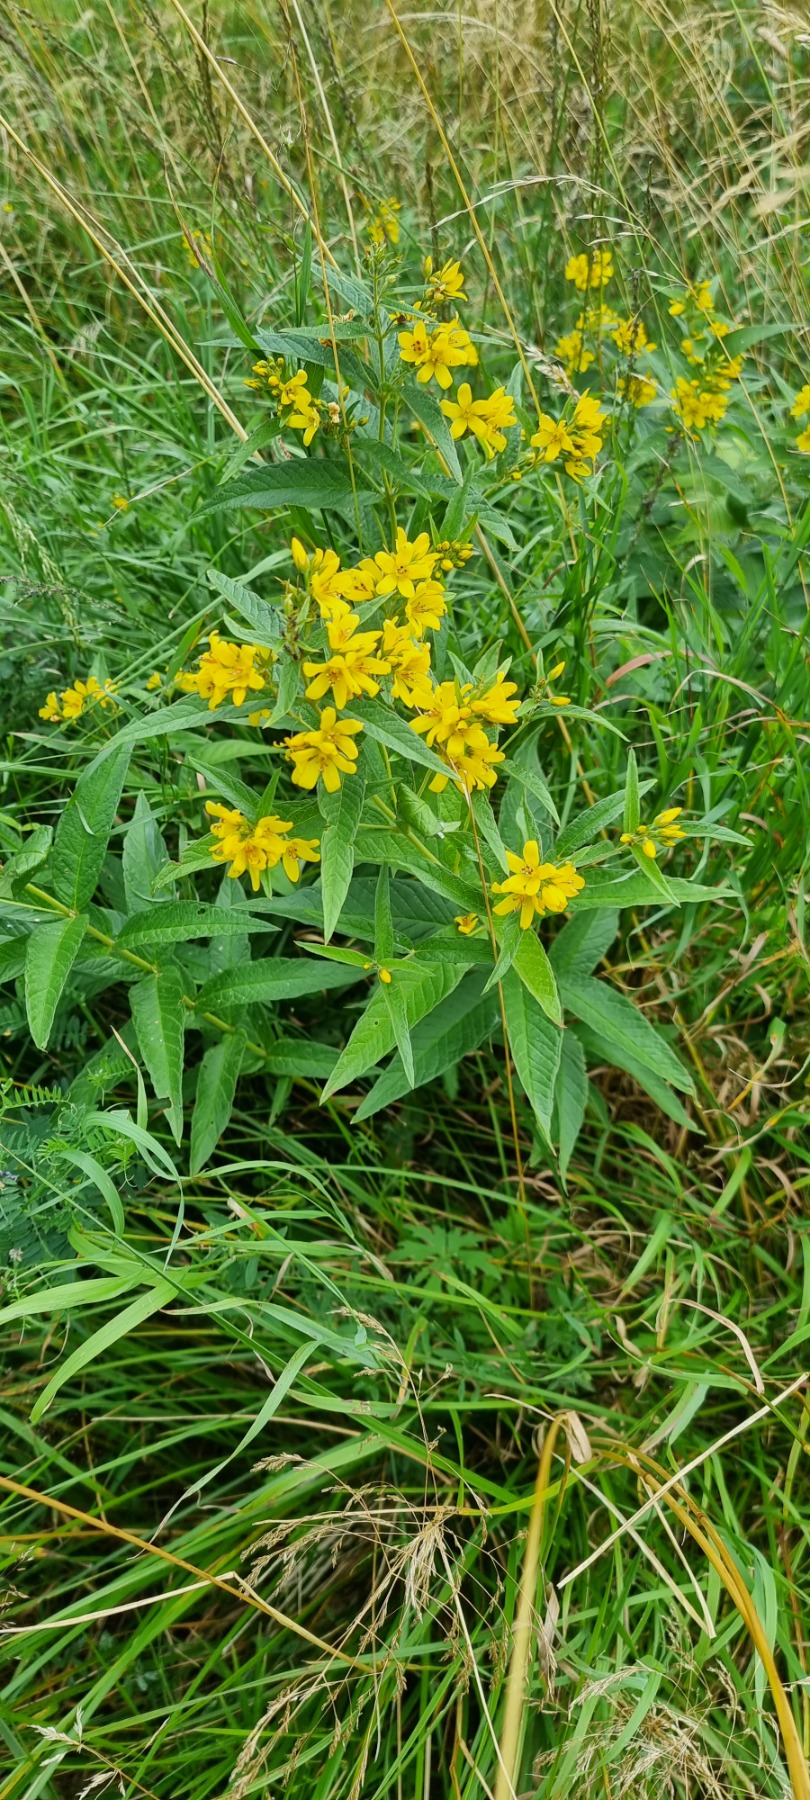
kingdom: Plantae
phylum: Tracheophyta
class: Magnoliopsida
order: Ericales
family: Primulaceae
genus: Lysimachia
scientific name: Lysimachia vulgaris
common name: Almindelig fredløs
